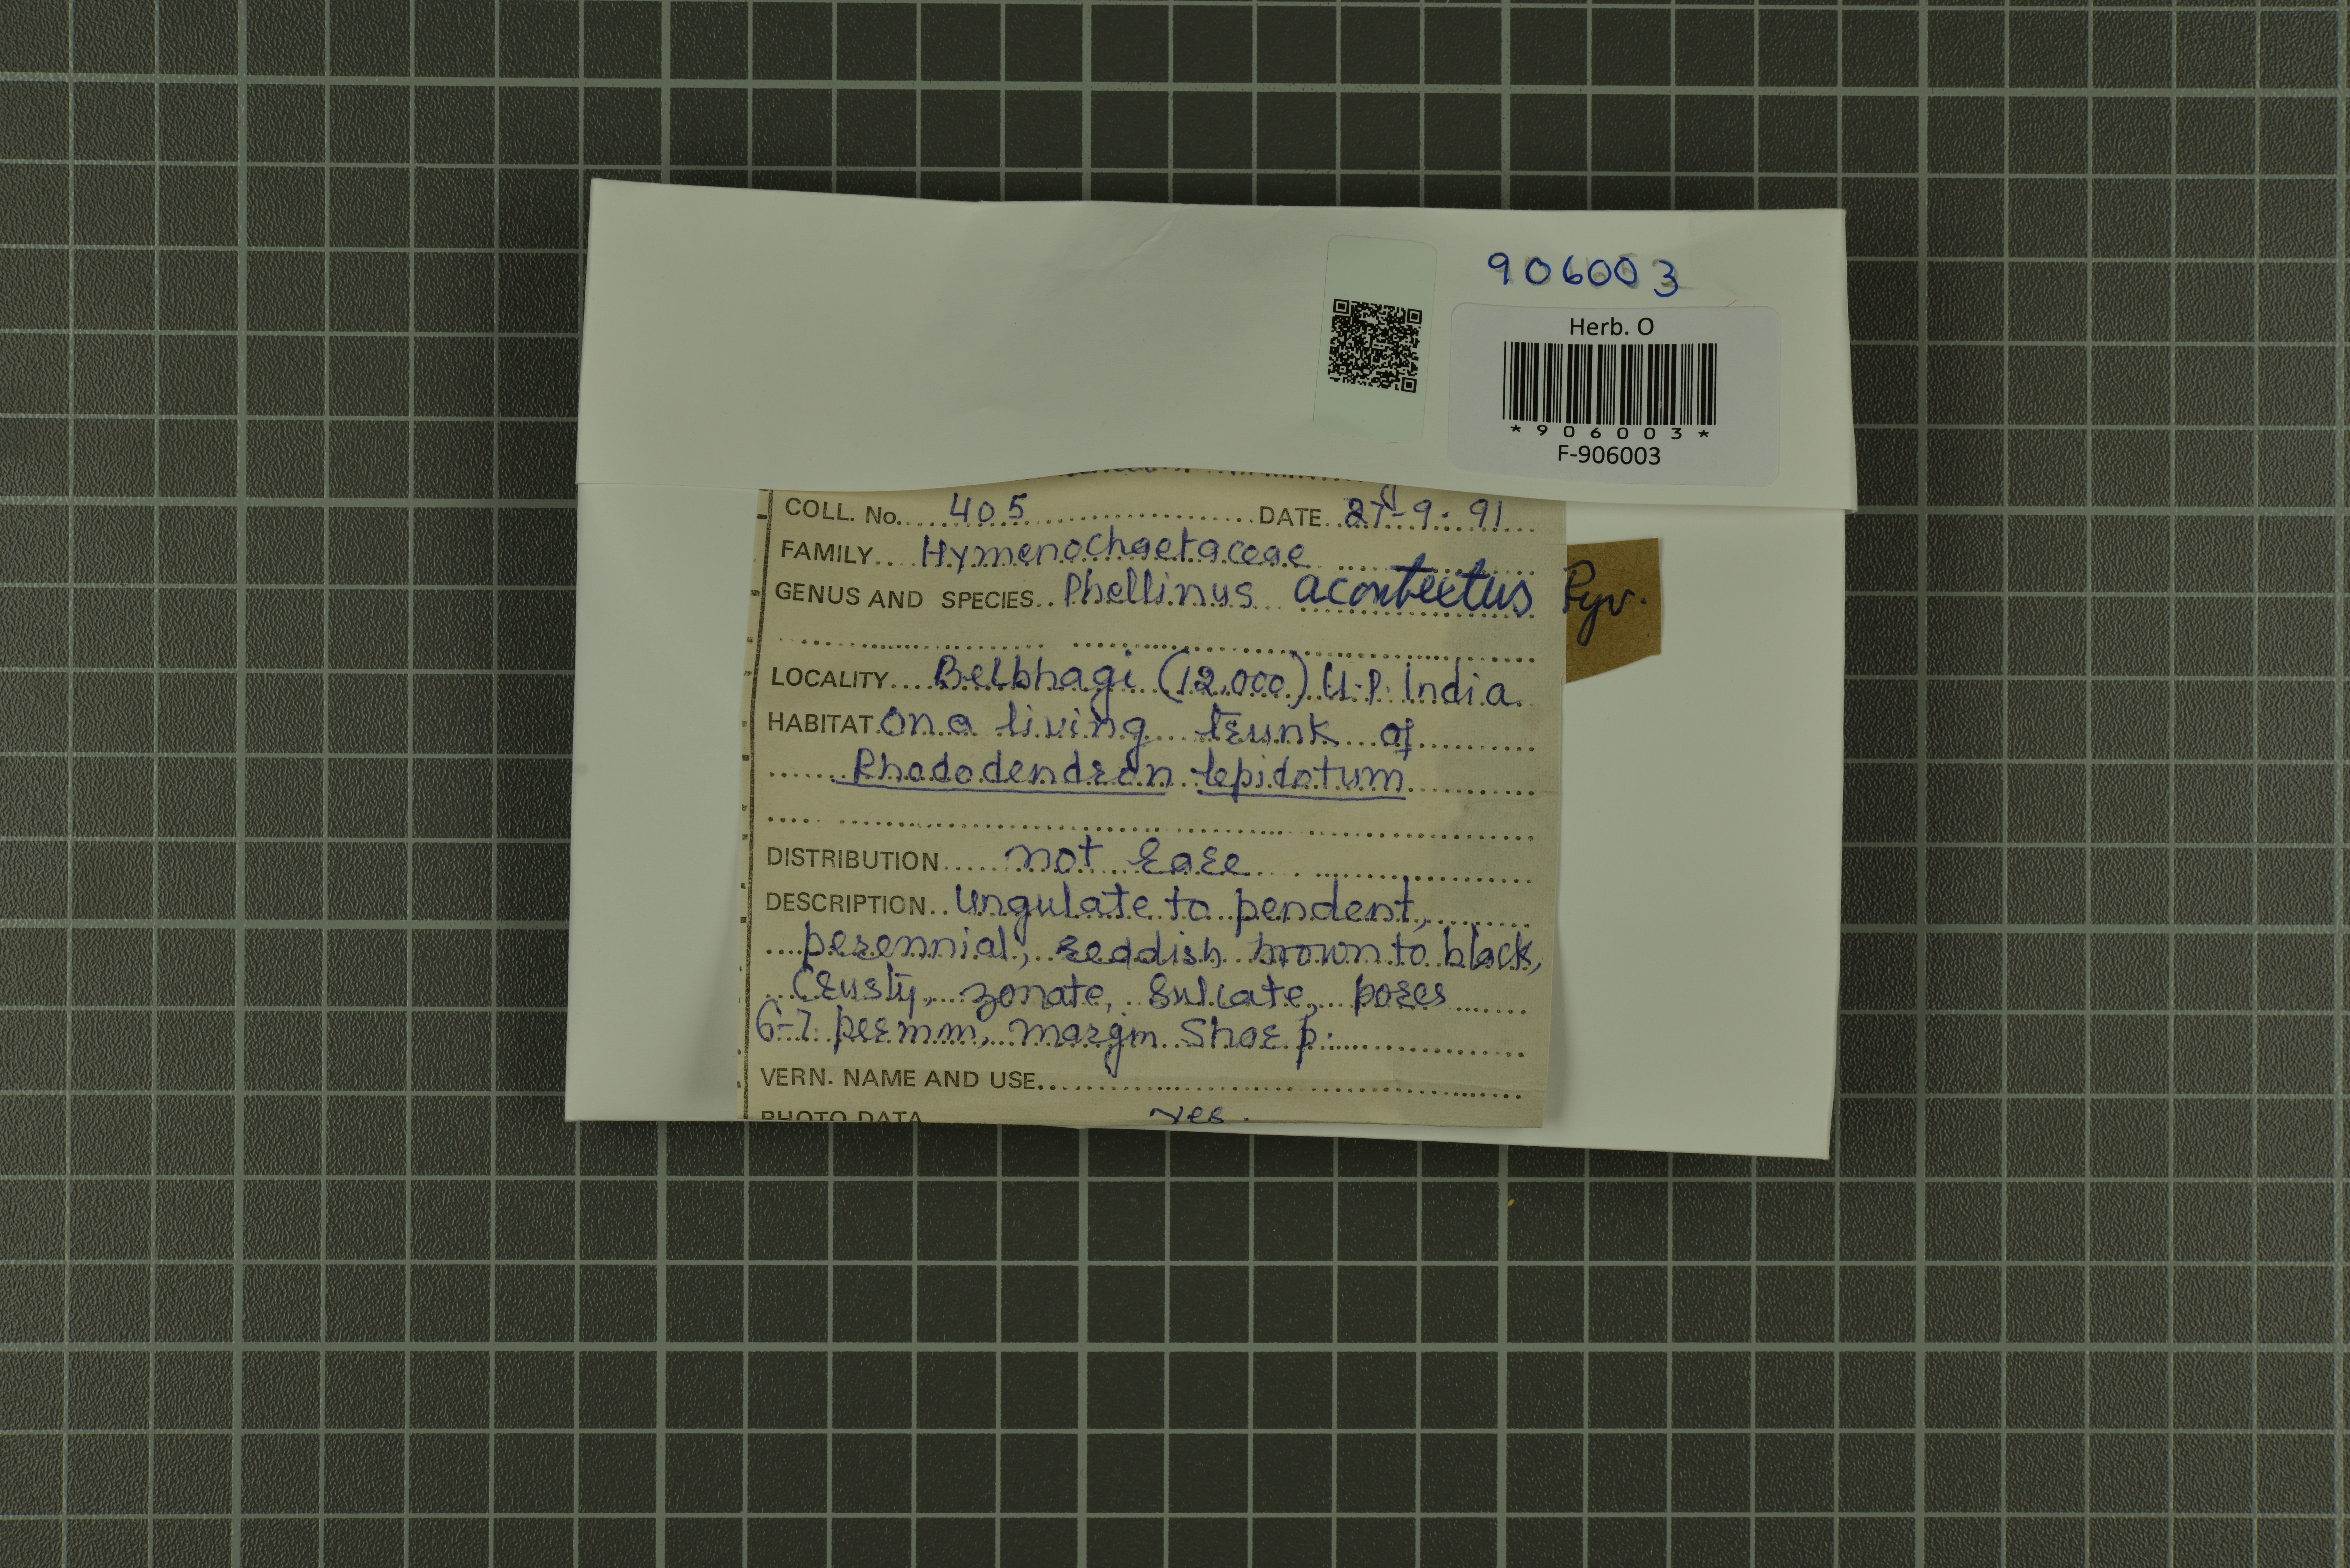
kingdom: Fungi
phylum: Basidiomycota
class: Agaricomycetes
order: Hymenochaetales
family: Hymenochaetaceae
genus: Fulvifomes
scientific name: Fulvifomes acontextus
